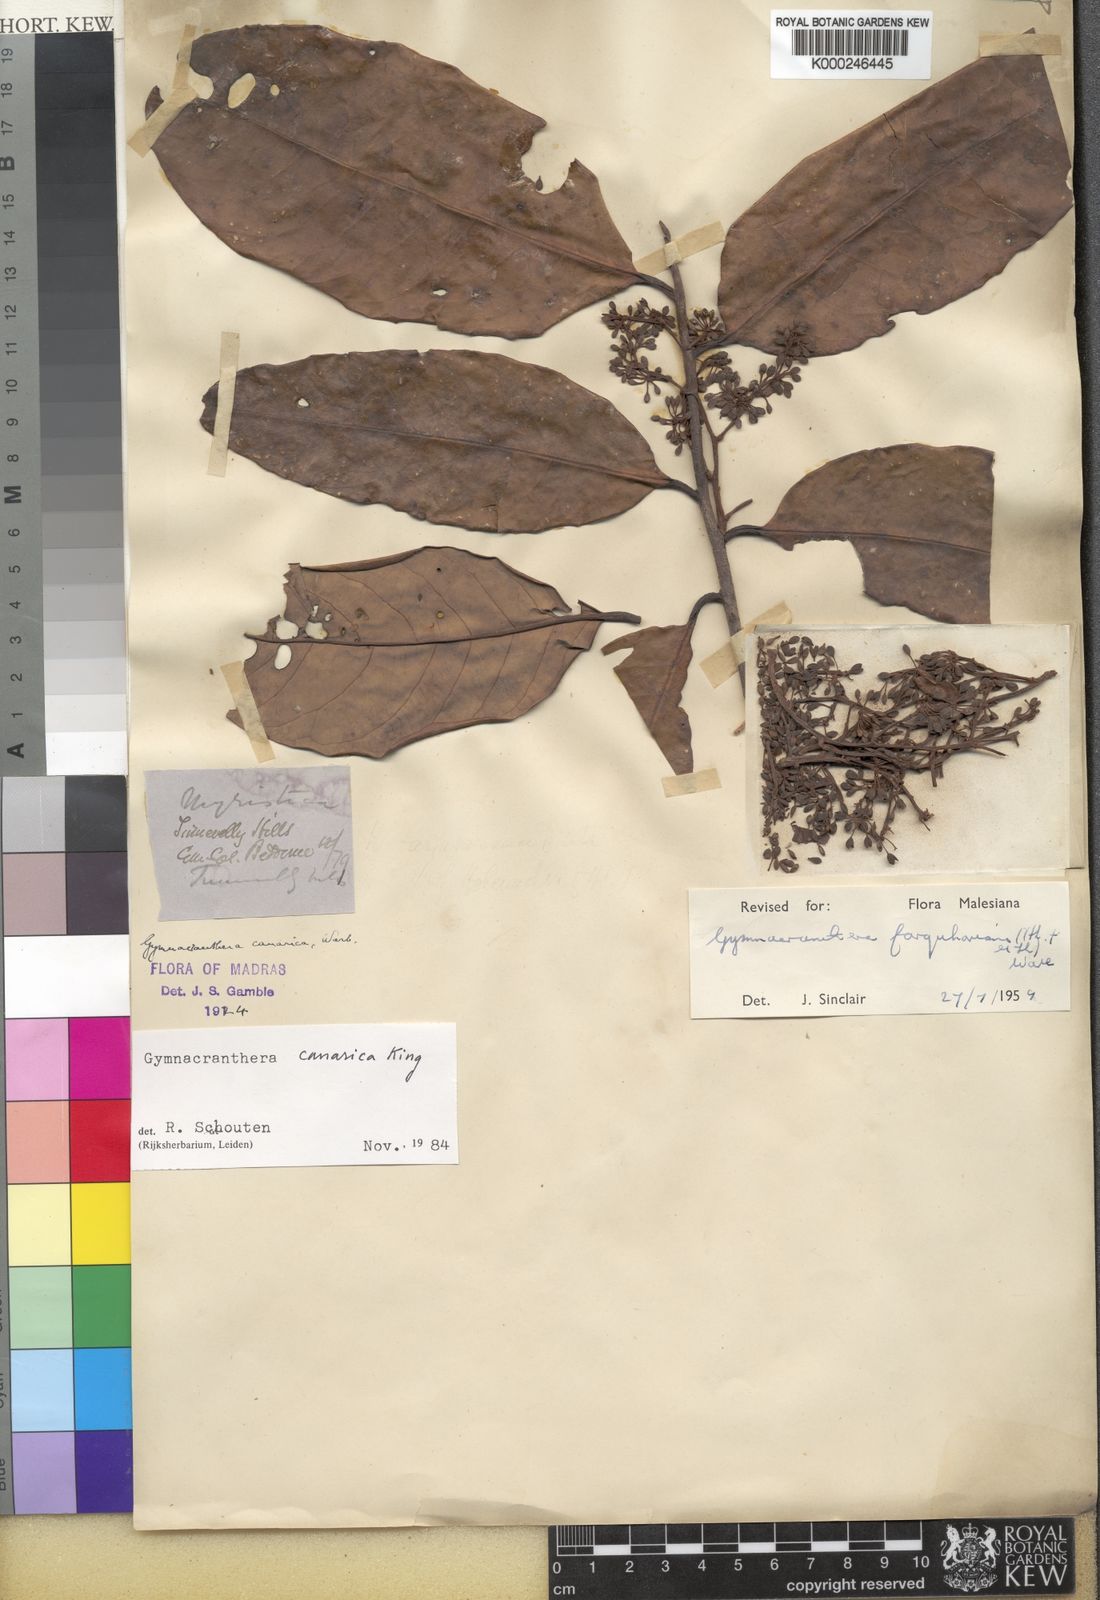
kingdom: Plantae
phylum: Tracheophyta
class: Magnoliopsida
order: Magnoliales
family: Myristicaceae
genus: Gymnacranthera
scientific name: Gymnacranthera canarica
